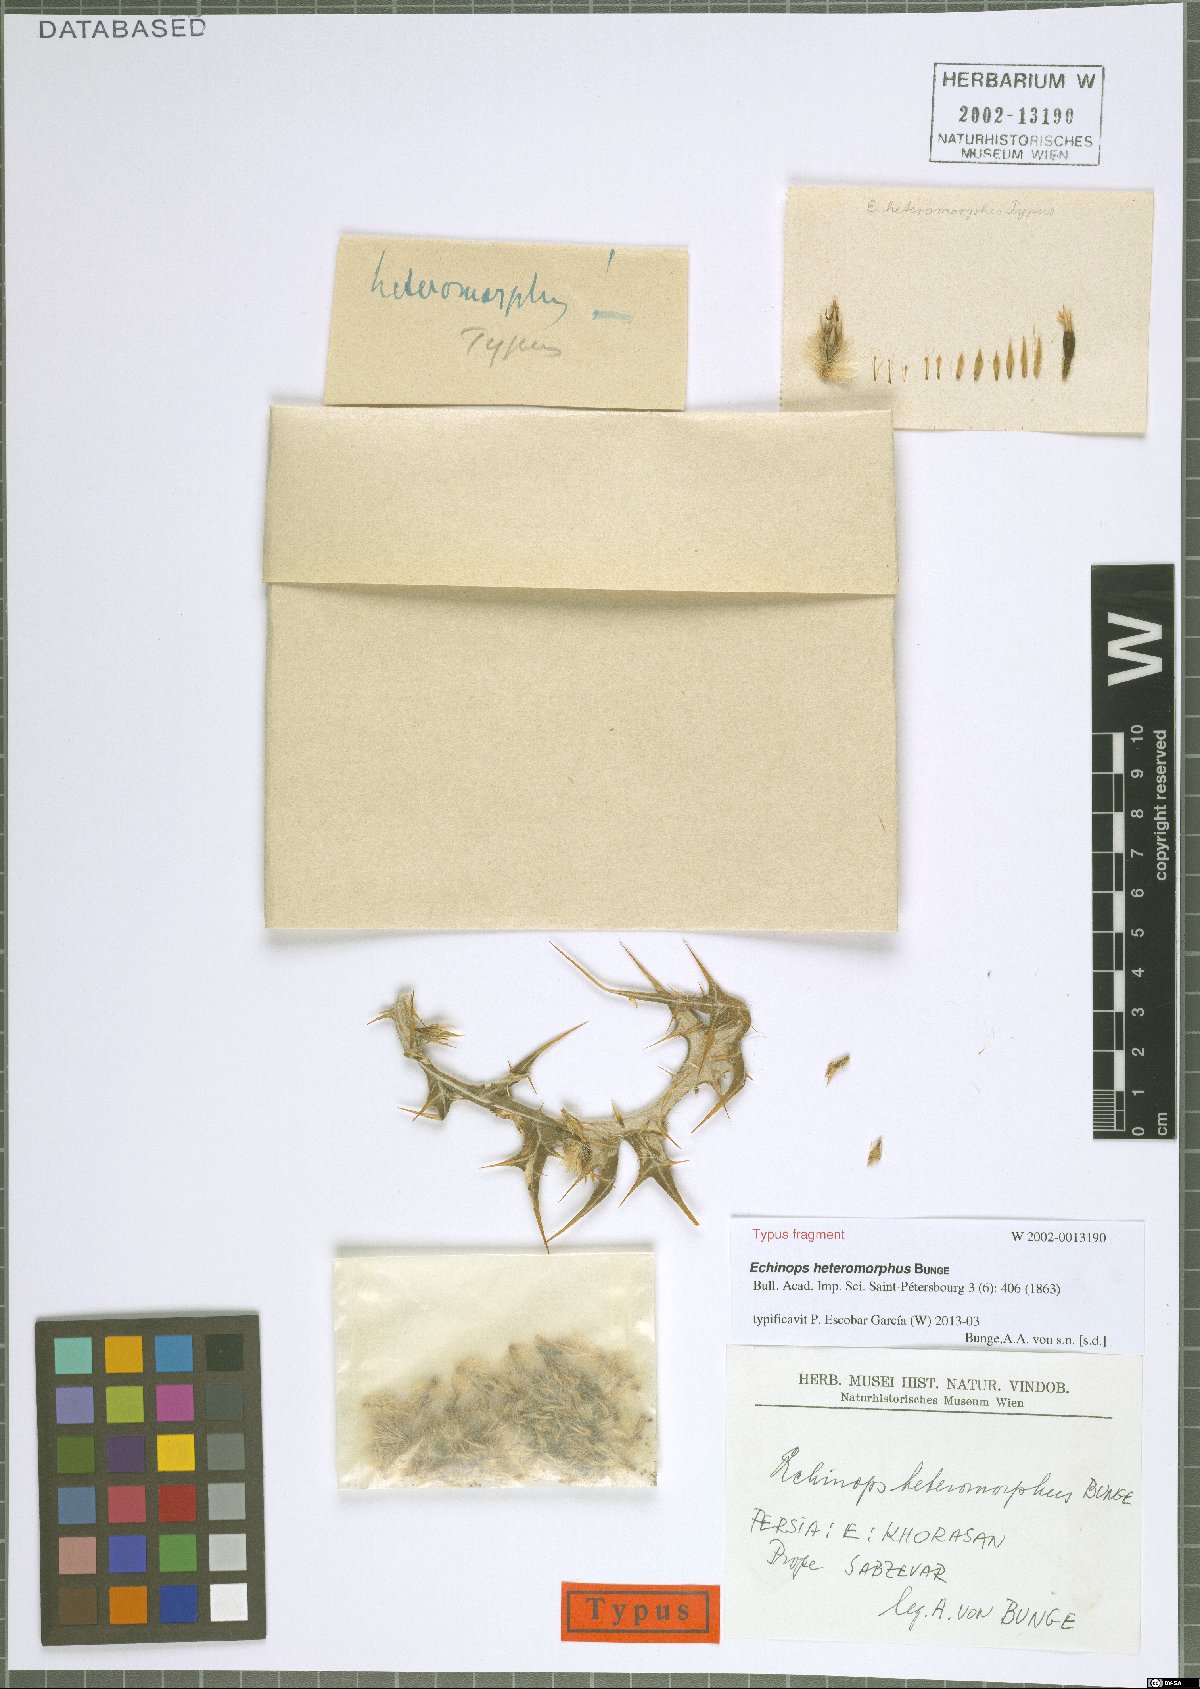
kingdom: Plantae
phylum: Tracheophyta
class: Magnoliopsida
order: Asterales
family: Asteraceae
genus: Echinops
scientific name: Echinops heteromorphus
